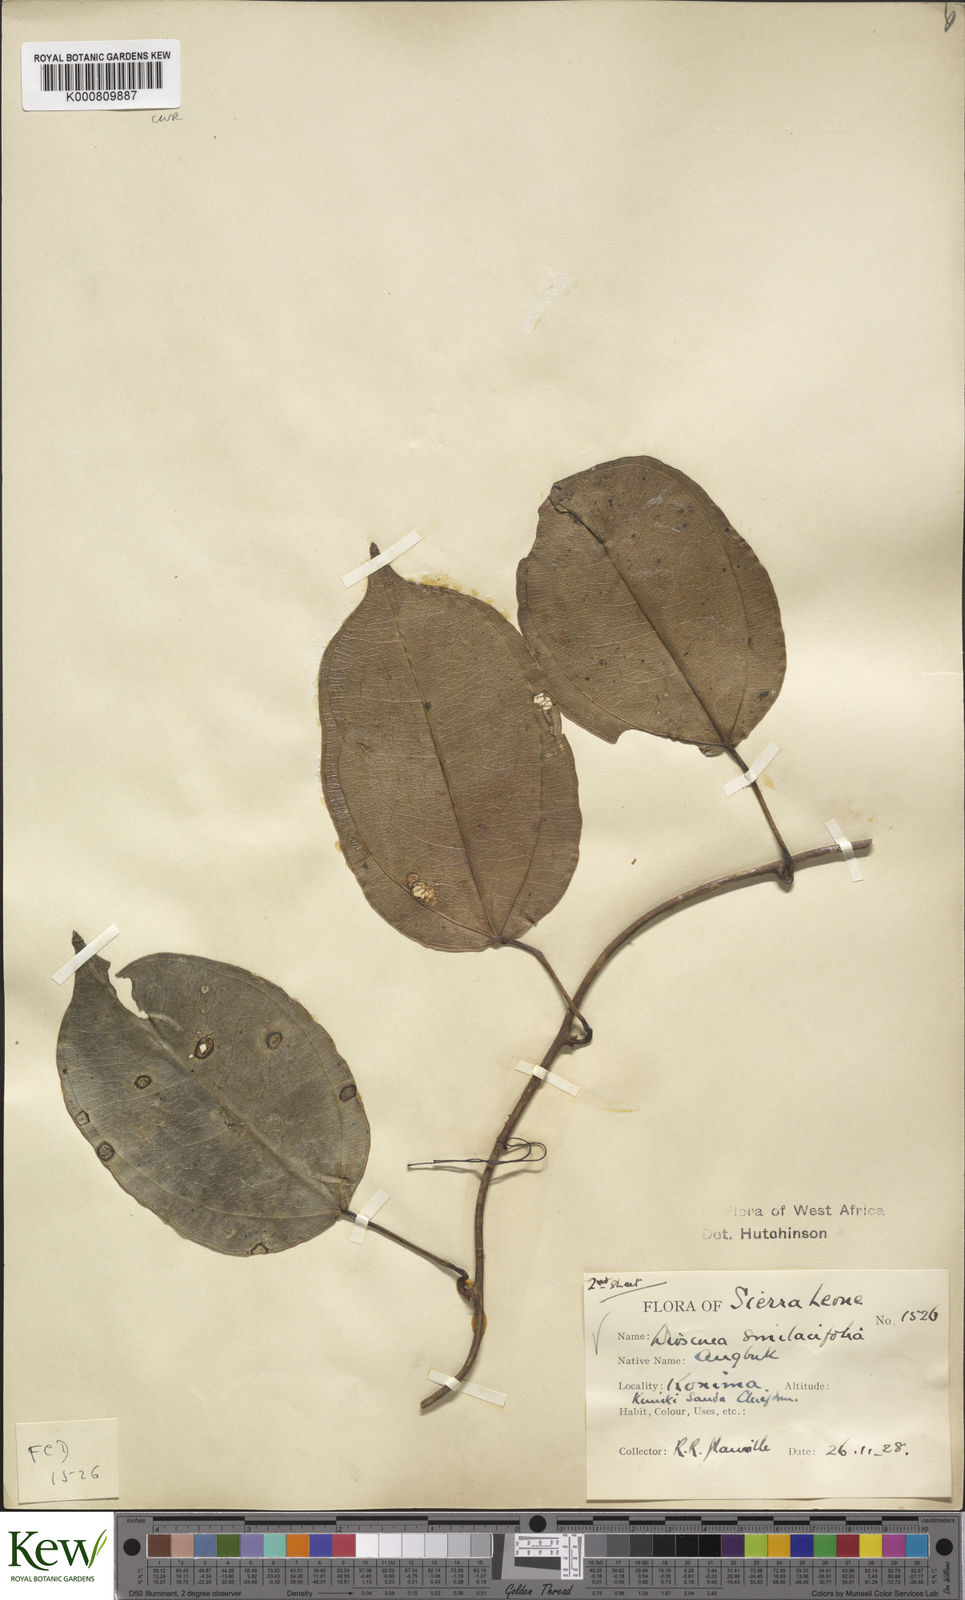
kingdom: Plantae
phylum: Tracheophyta
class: Liliopsida
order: Dioscoreales
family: Dioscoreaceae
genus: Dioscorea
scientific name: Dioscorea smilacifolia
